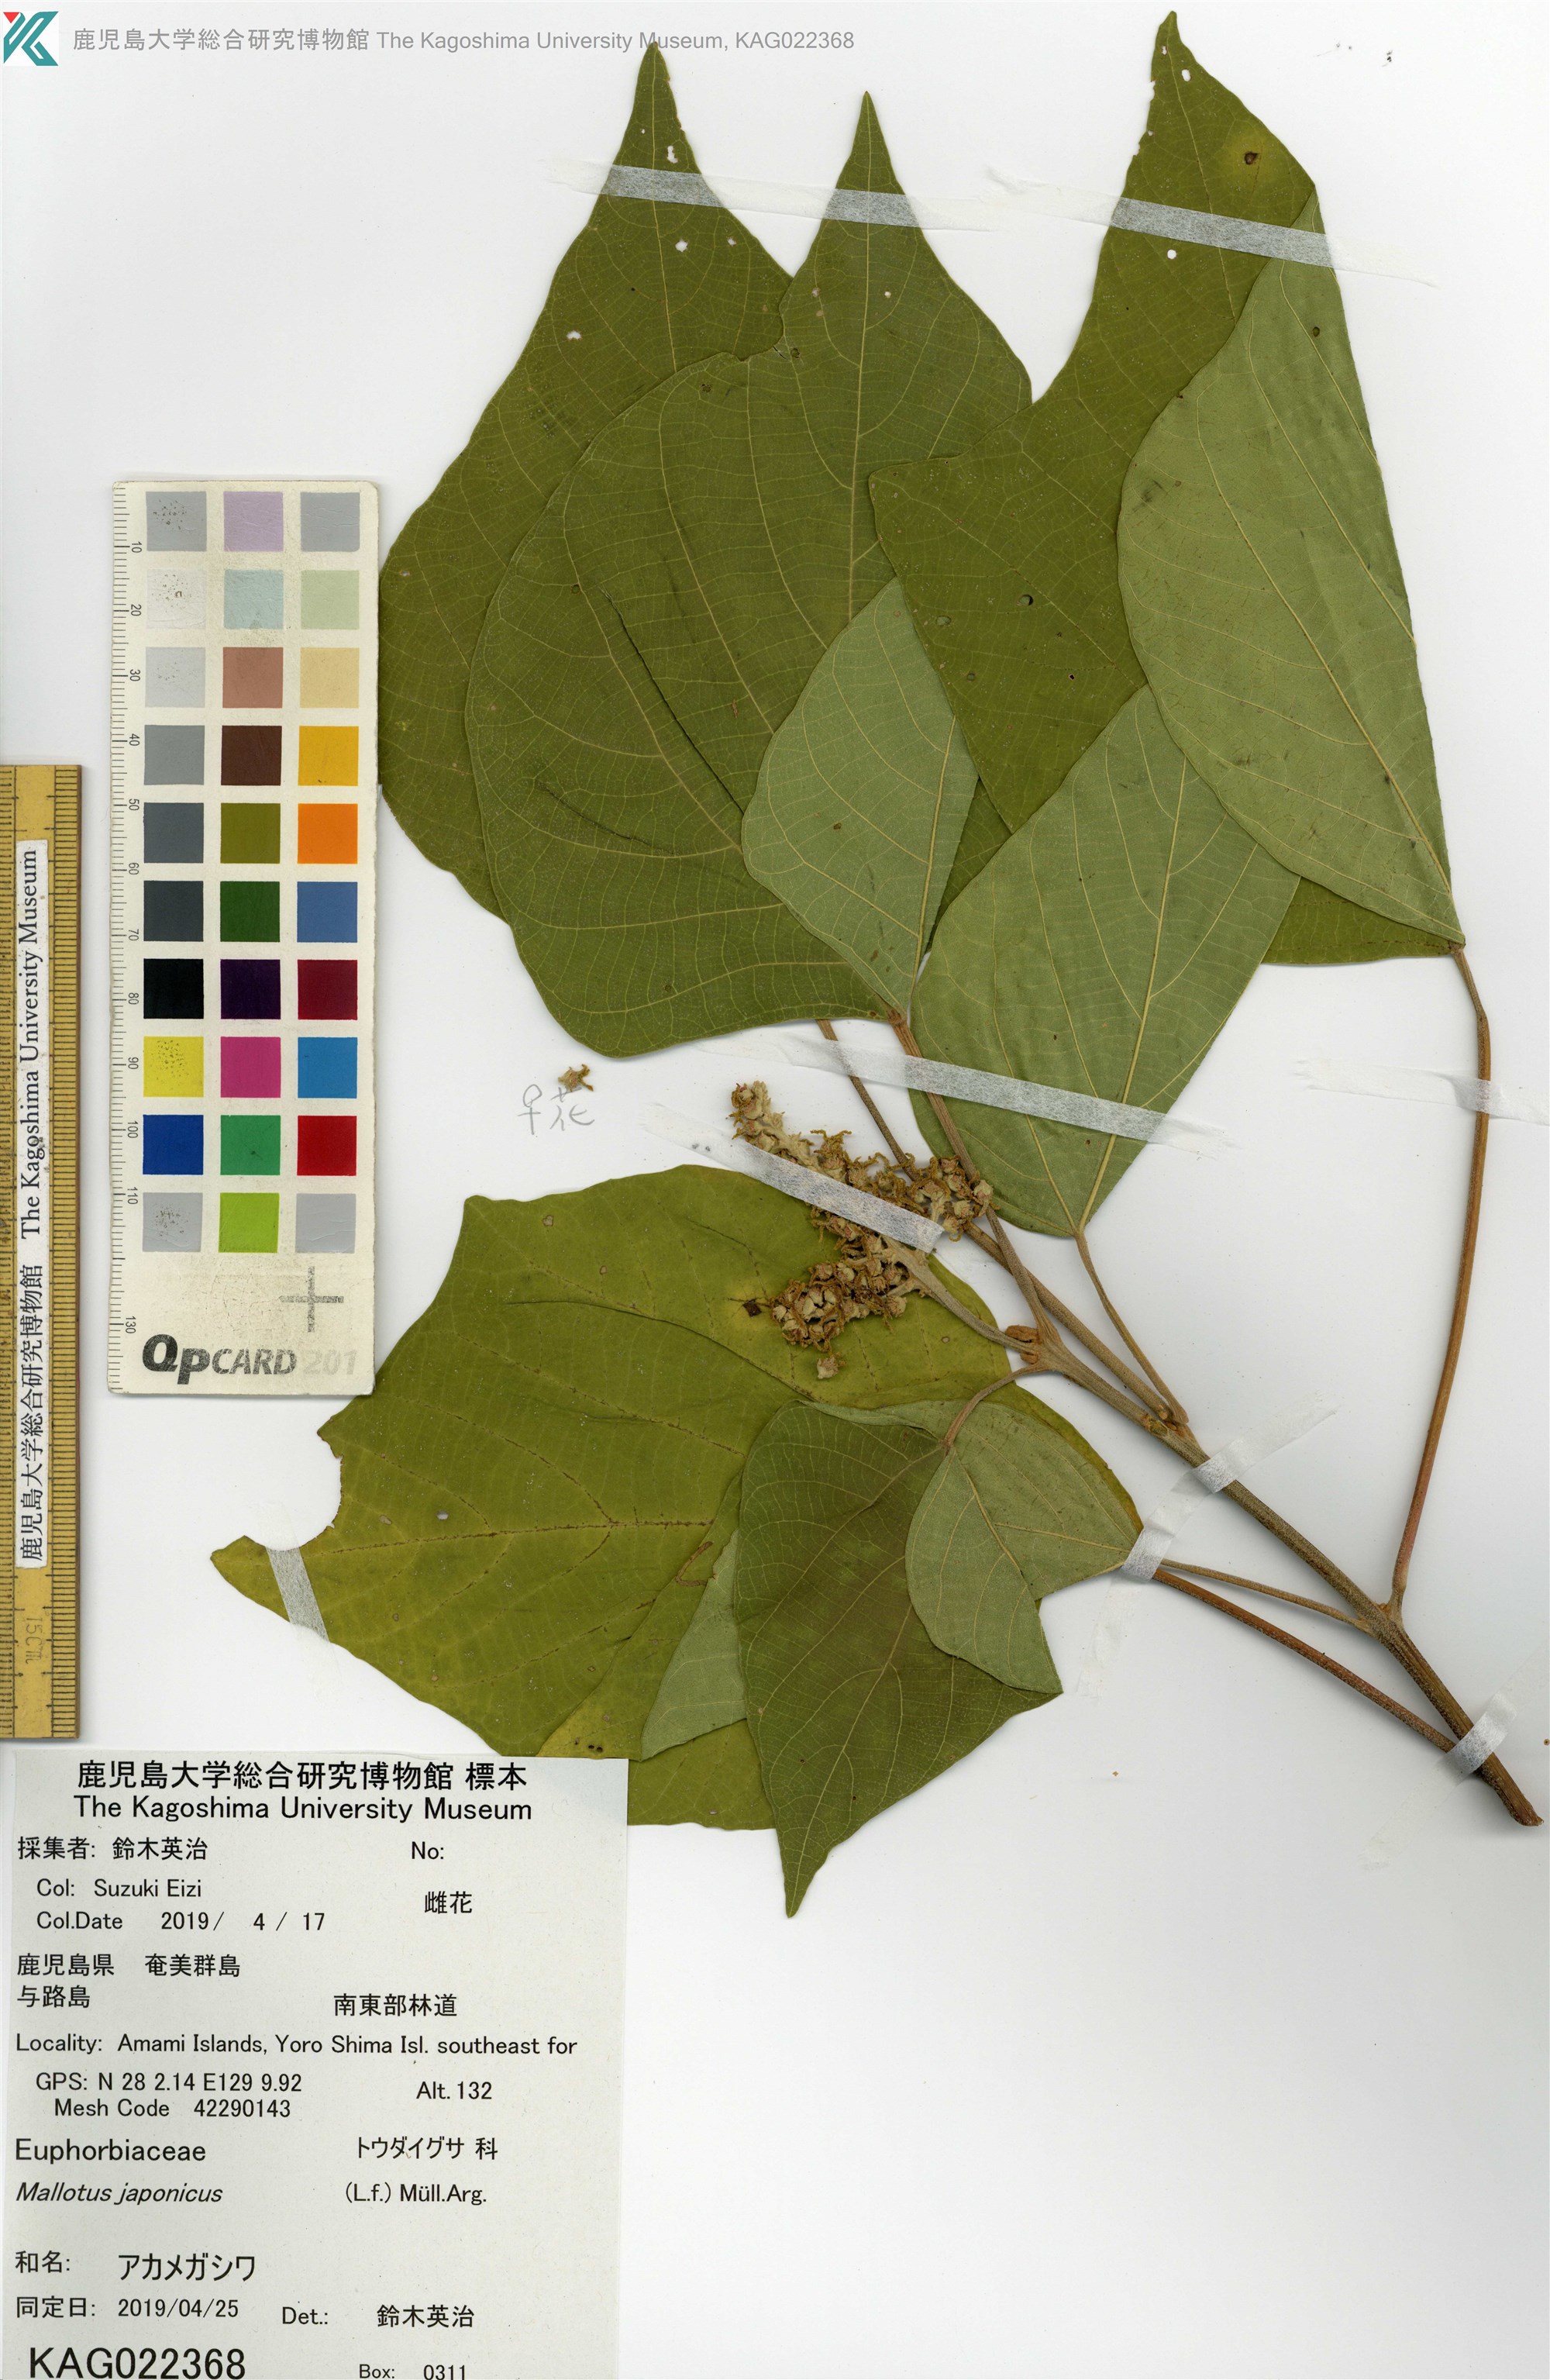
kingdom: Plantae
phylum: Tracheophyta
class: Magnoliopsida
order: Malpighiales
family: Euphorbiaceae
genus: Mallotus
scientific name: Mallotus japonicus
